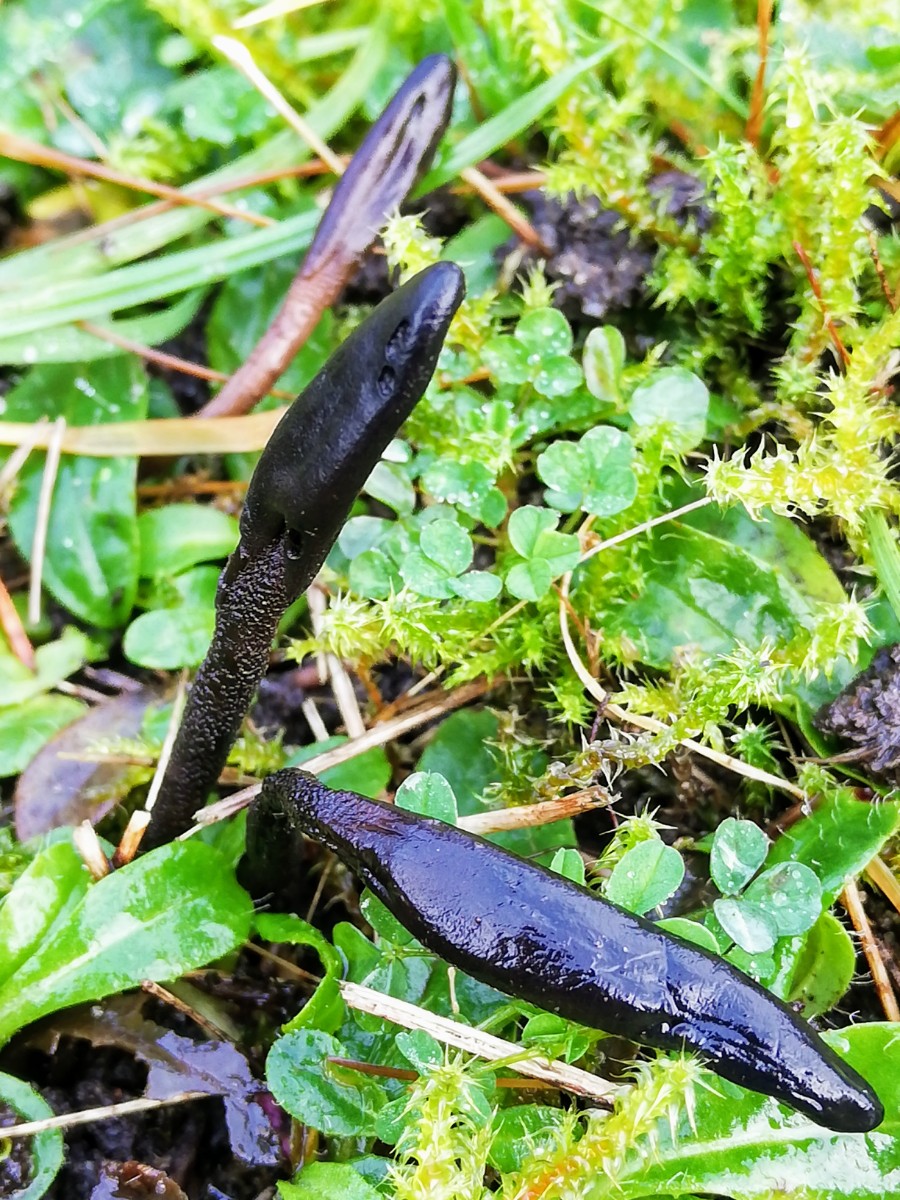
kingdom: Fungi
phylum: Ascomycota
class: Geoglossomycetes
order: Geoglossales
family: Geoglossaceae
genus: Hemileucoglossum
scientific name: Hemileucoglossum elongatum
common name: småsporet jordtunge
